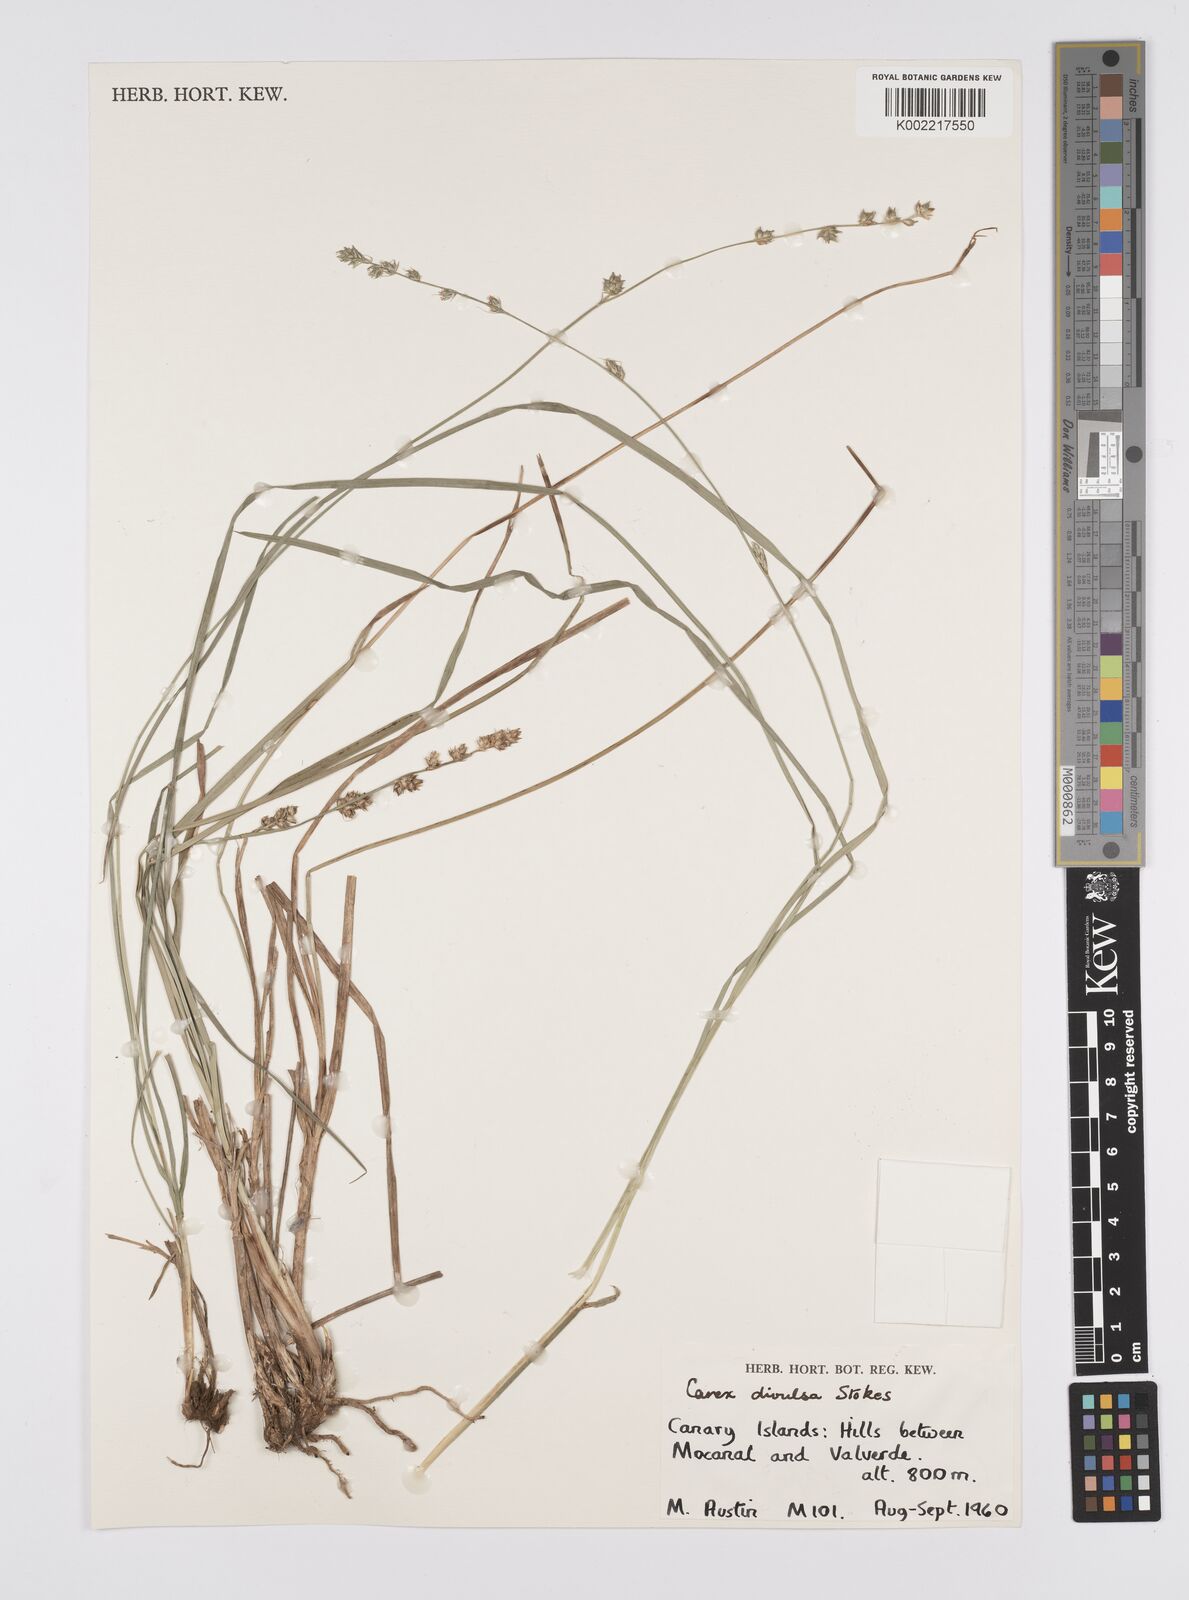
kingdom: Plantae
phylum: Tracheophyta
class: Liliopsida
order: Poales
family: Cyperaceae
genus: Carex
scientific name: Carex divulsa
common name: Grassland sedge
